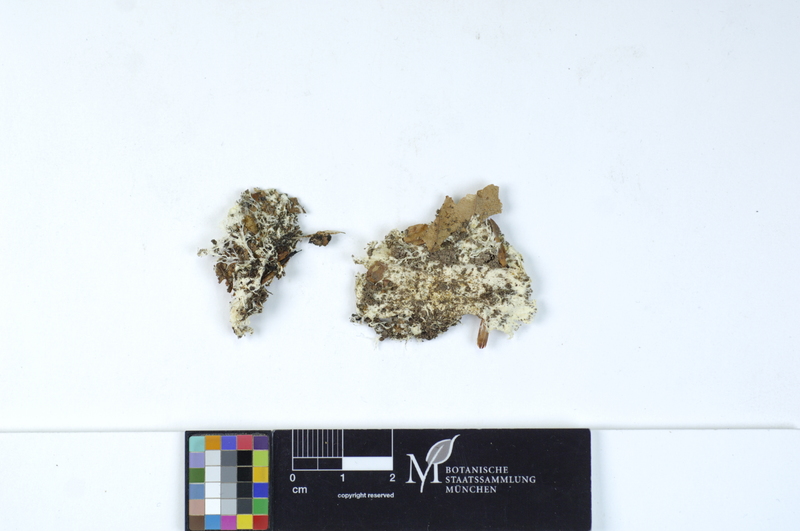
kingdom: Plantae
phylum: Tracheophyta
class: Magnoliopsida
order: Fagales
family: Fagaceae
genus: Fagus
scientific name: Fagus sylvatica
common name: Beech
